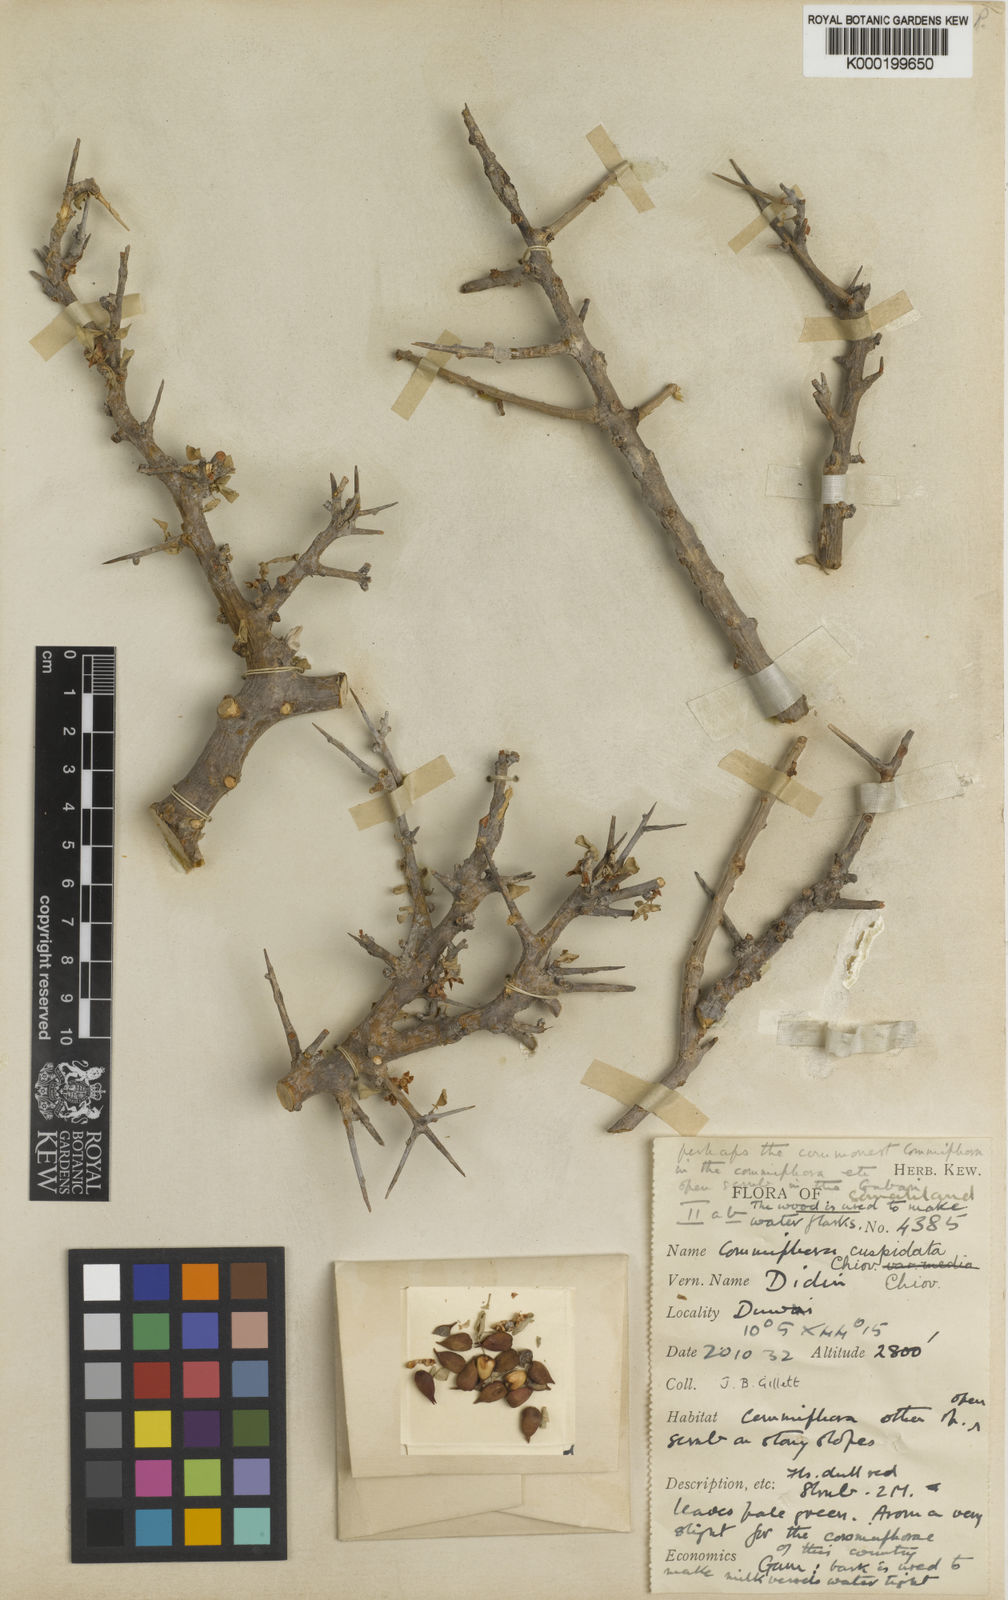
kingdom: Plantae
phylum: Tracheophyta
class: Magnoliopsida
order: Sapindales
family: Burseraceae
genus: Commiphora
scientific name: Commiphora myrrha
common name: African myrrh
